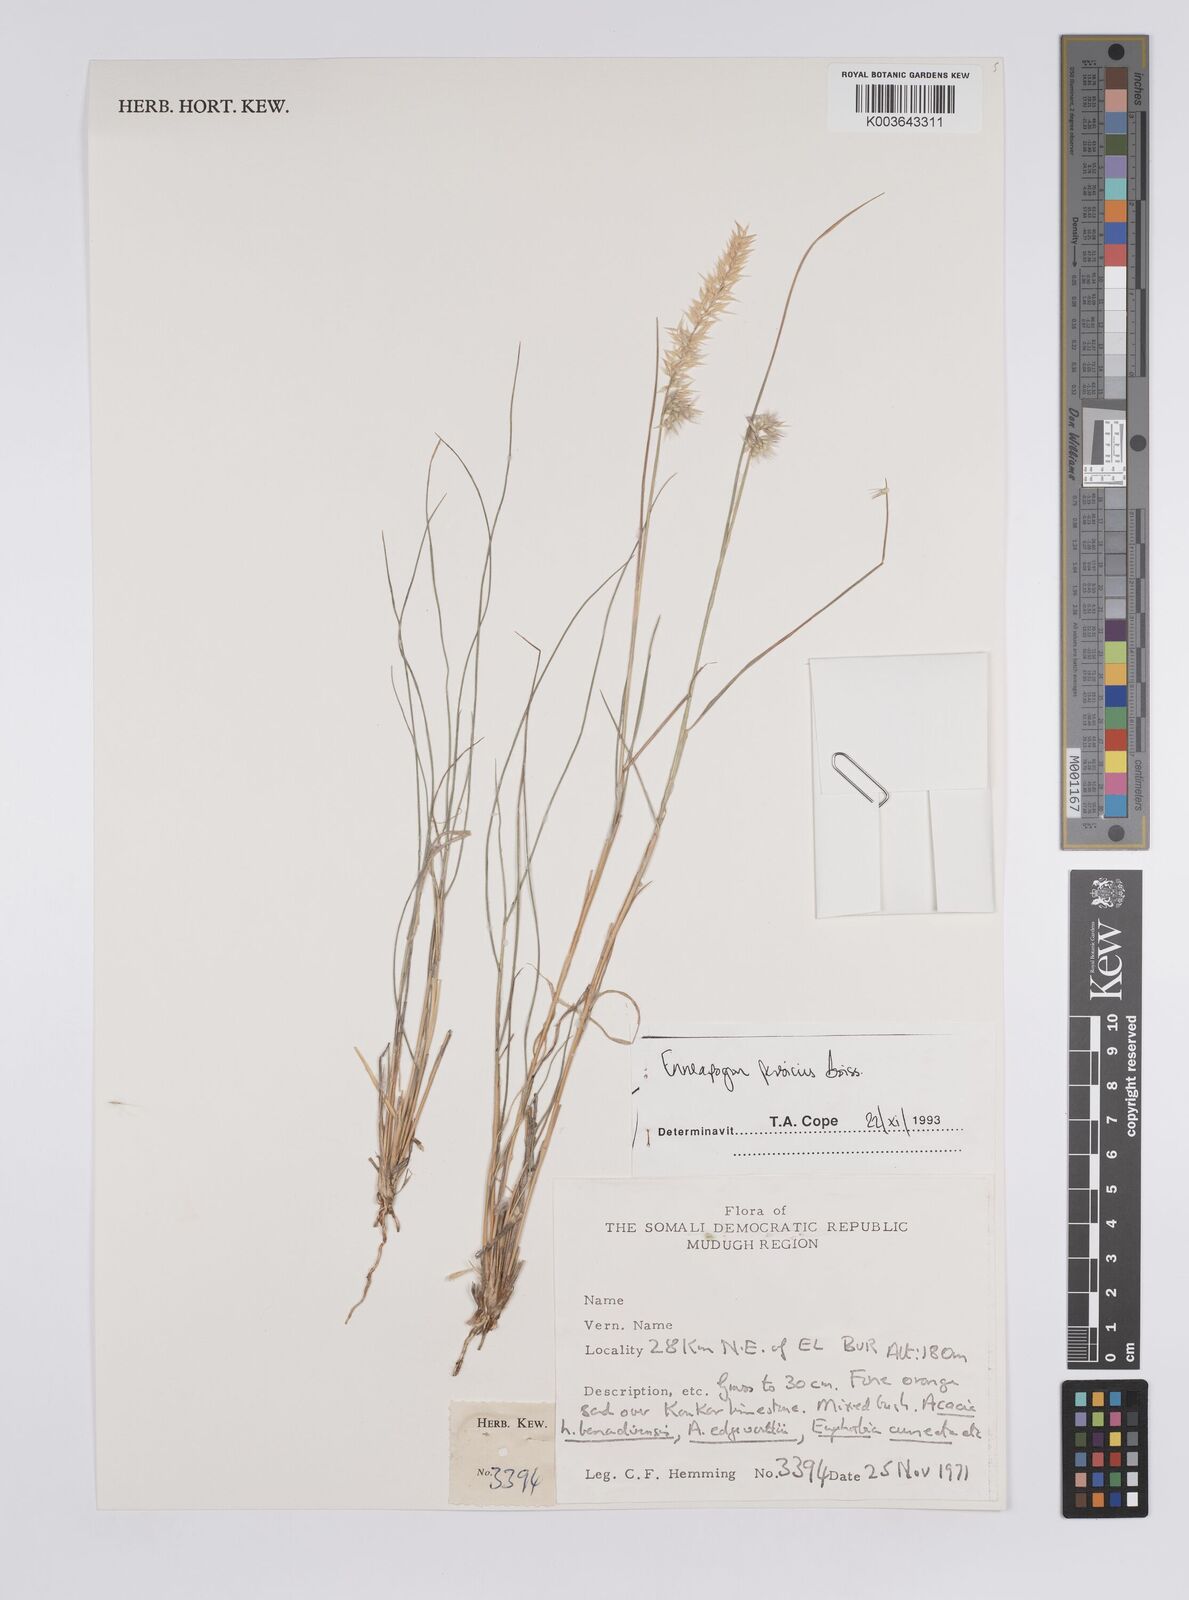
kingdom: Plantae
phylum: Tracheophyta
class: Liliopsida
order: Poales
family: Poaceae
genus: Enneapogon
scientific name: Enneapogon persicus
